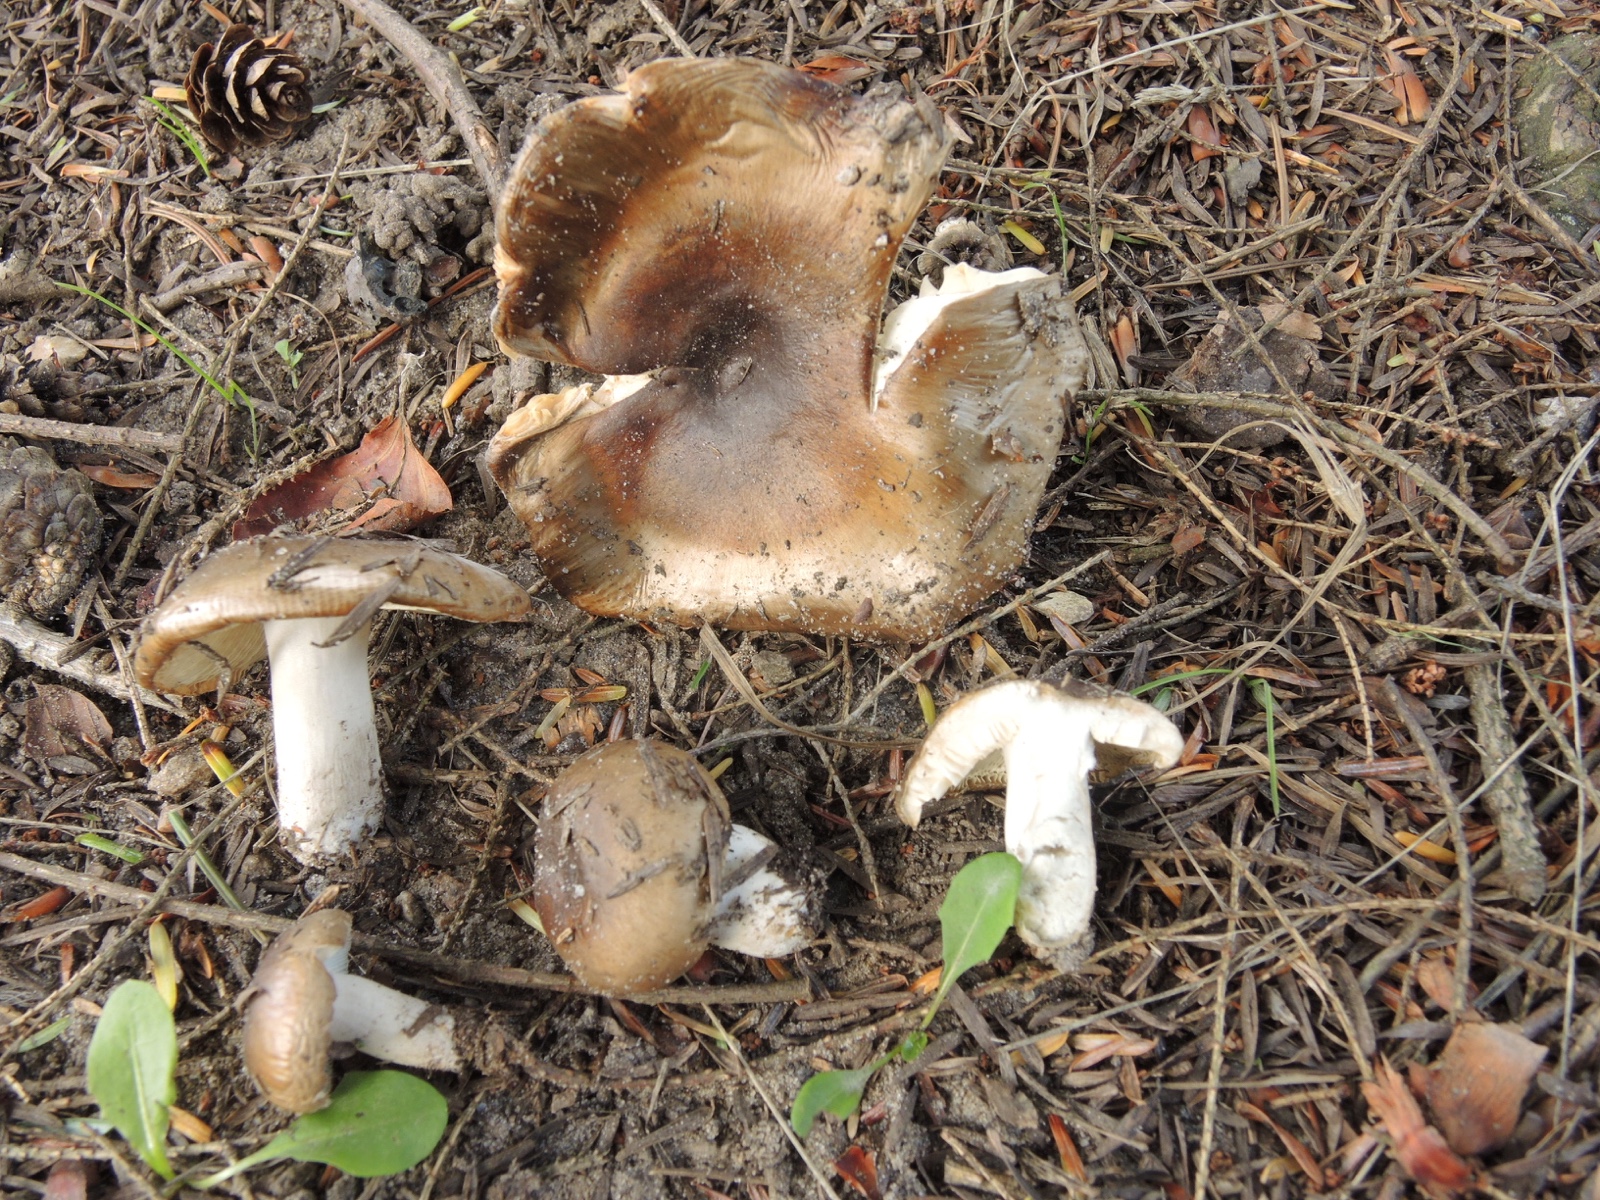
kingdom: Fungi
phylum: Basidiomycota
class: Agaricomycetes
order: Russulales
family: Russulaceae
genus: Russula
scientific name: Russula sororia
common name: brun kam-skørhat
